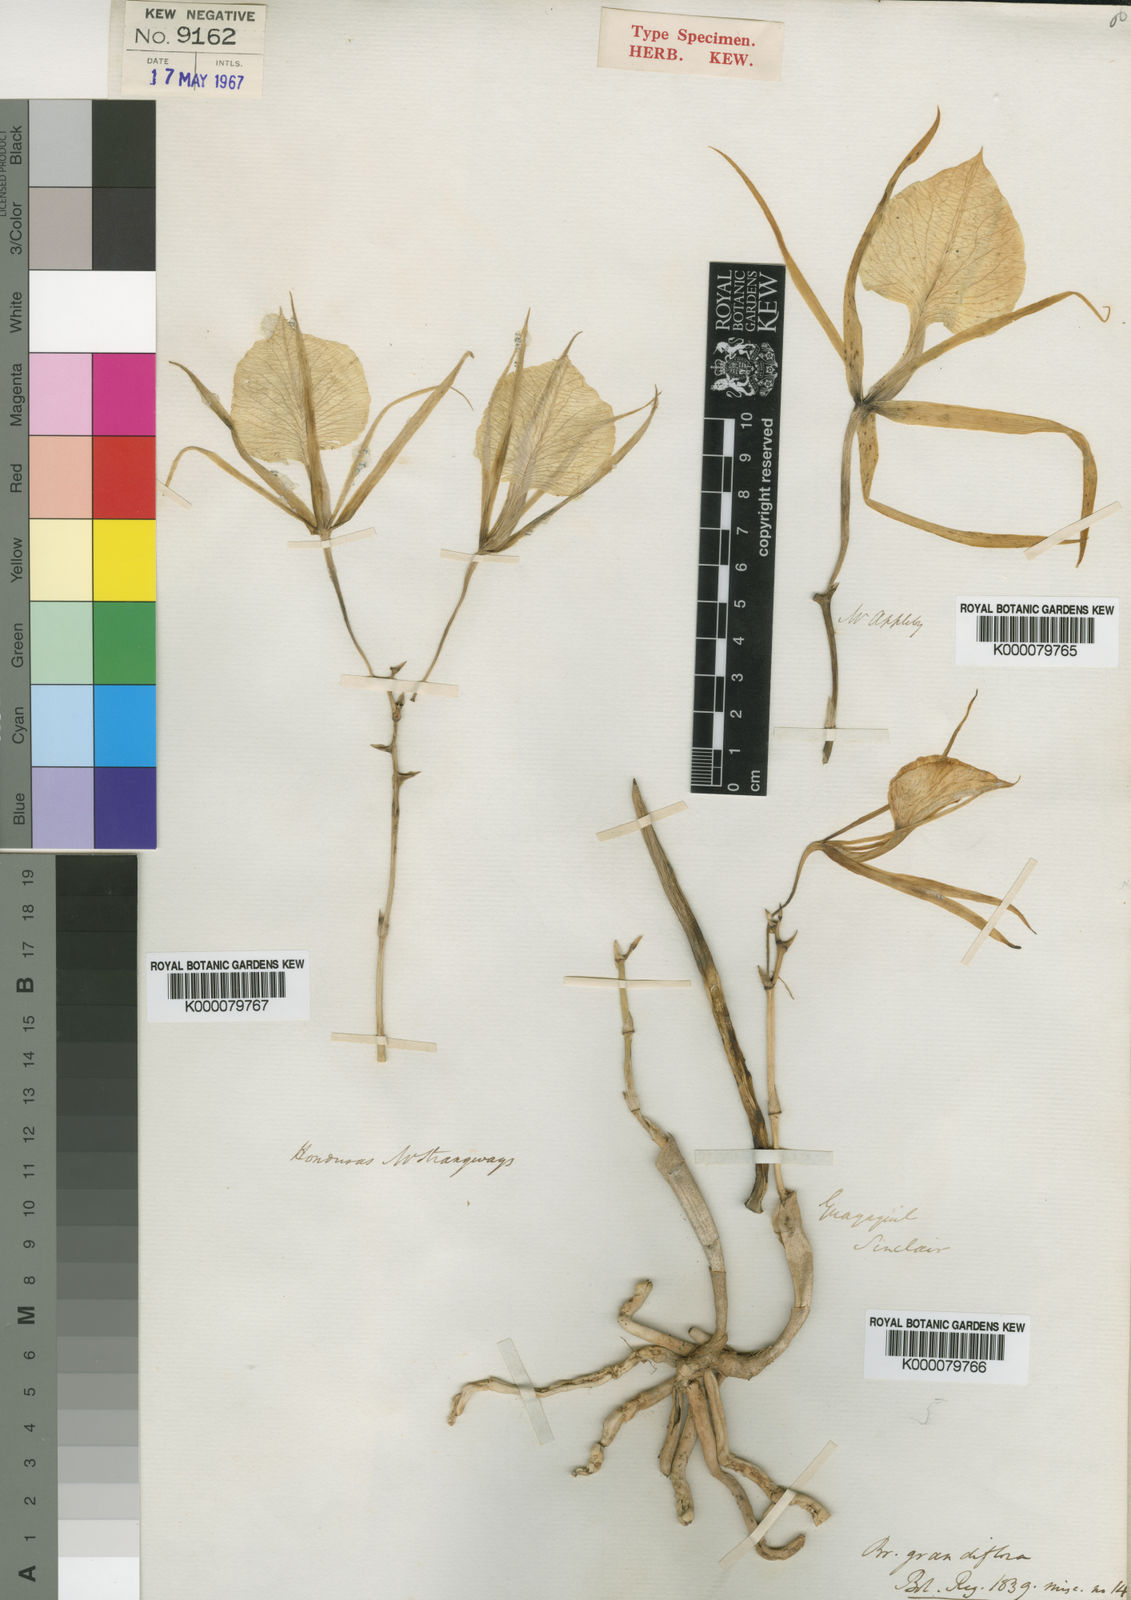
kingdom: Plantae
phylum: Tracheophyta
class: Liliopsida
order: Asparagales
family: Orchidaceae
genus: Brassavola
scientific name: Brassavola nodosa
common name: Lady of the night
